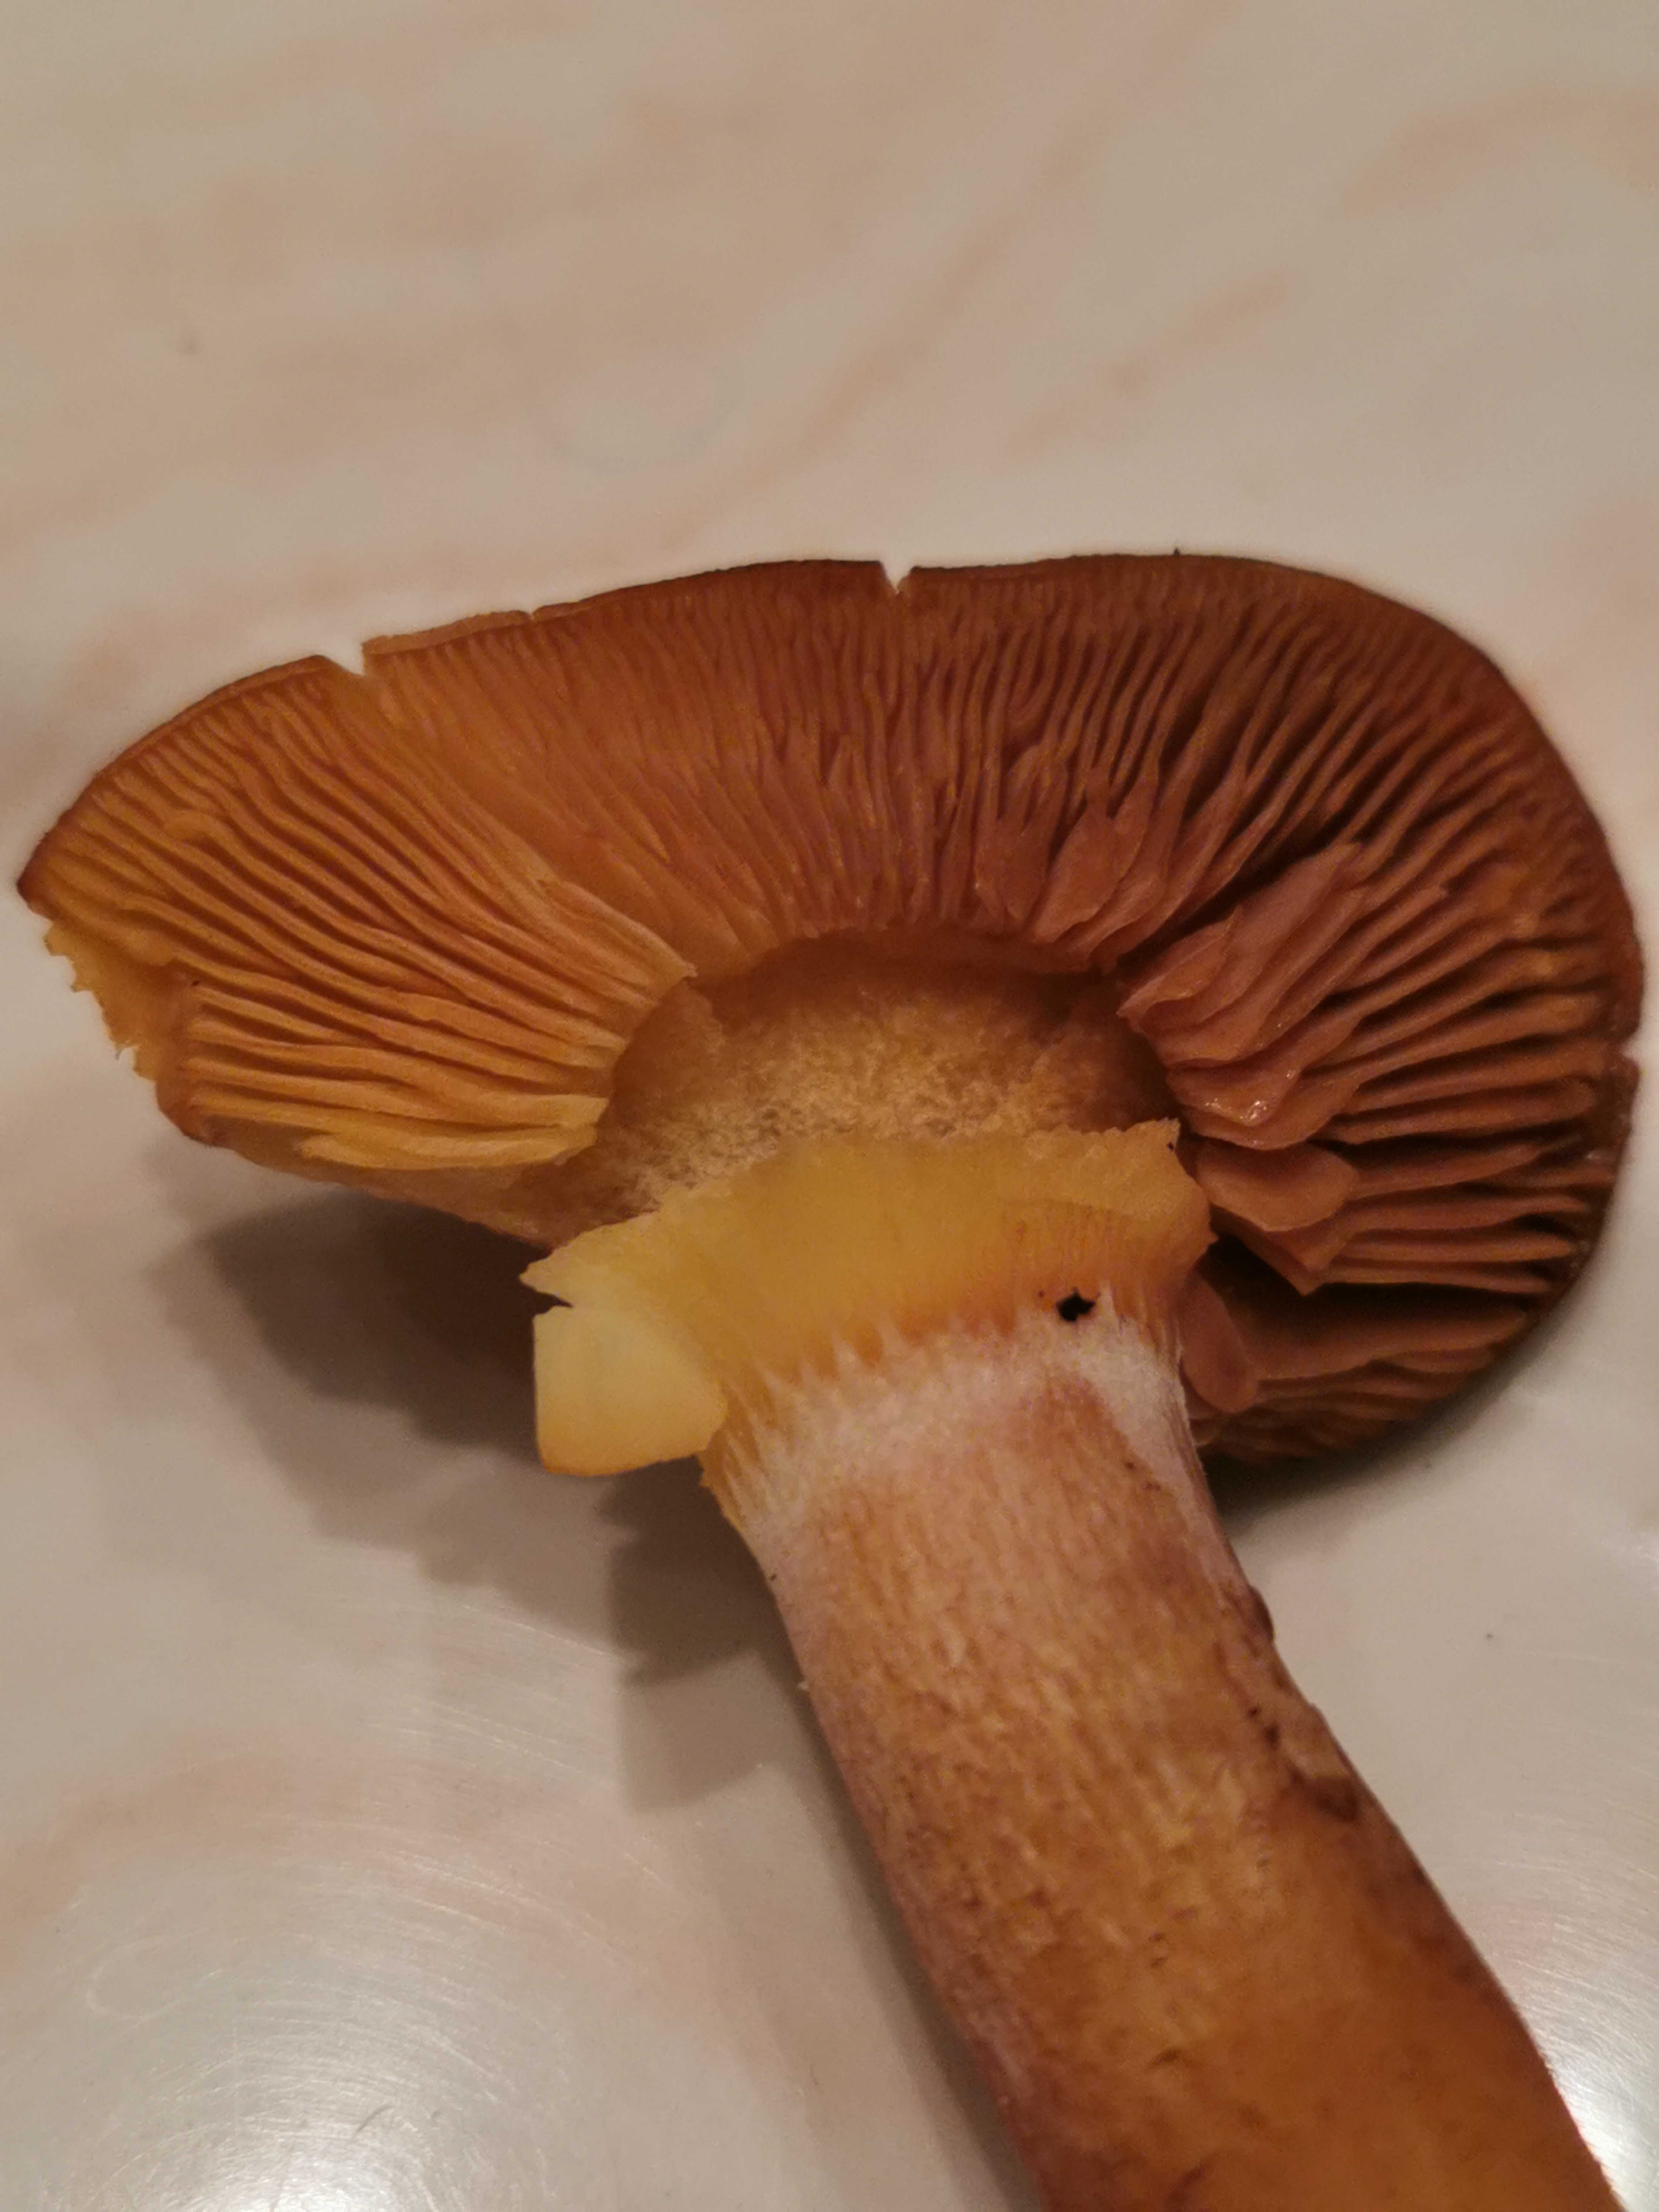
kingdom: Fungi
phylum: Basidiomycota
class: Agaricomycetes
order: Agaricales
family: Tricholomataceae
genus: Tricholomopsis
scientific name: Tricholomopsis rutilans
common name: purpur-væbnerhat
